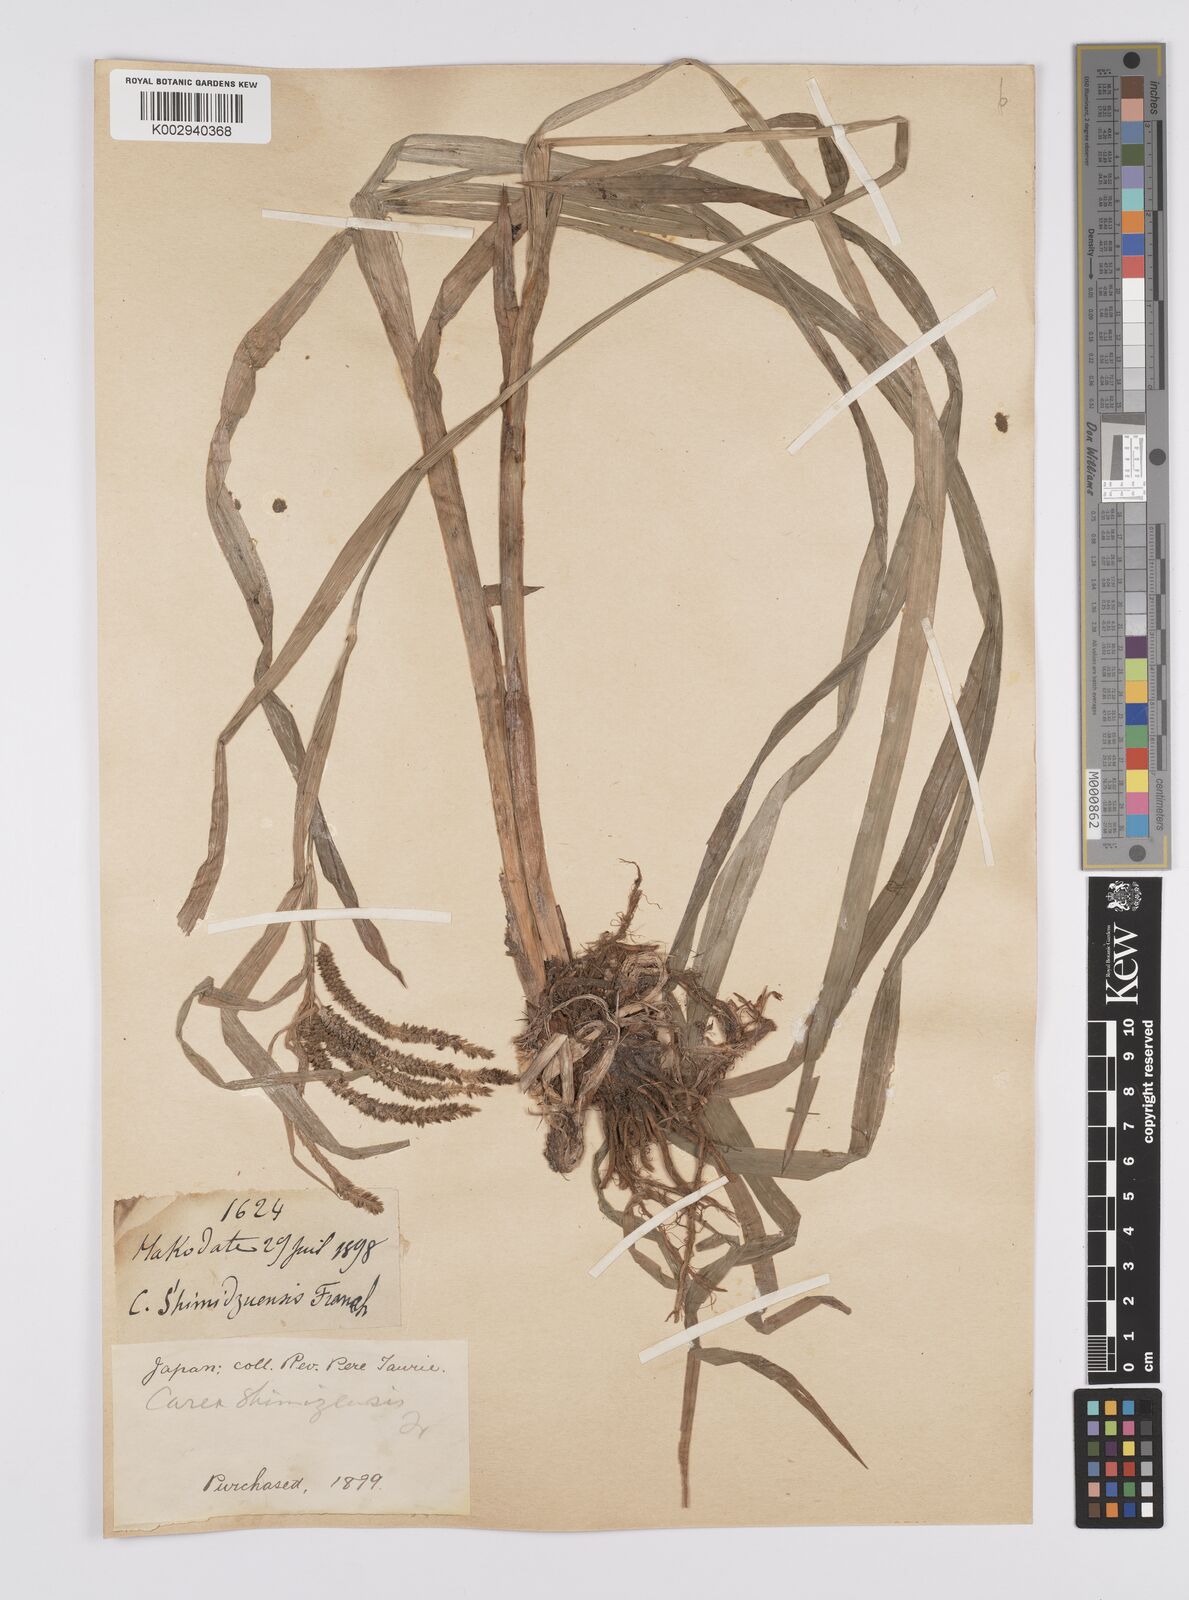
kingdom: Plantae
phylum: Tracheophyta
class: Liliopsida
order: Poales
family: Cyperaceae
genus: Carex
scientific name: Carex shimidzensis
